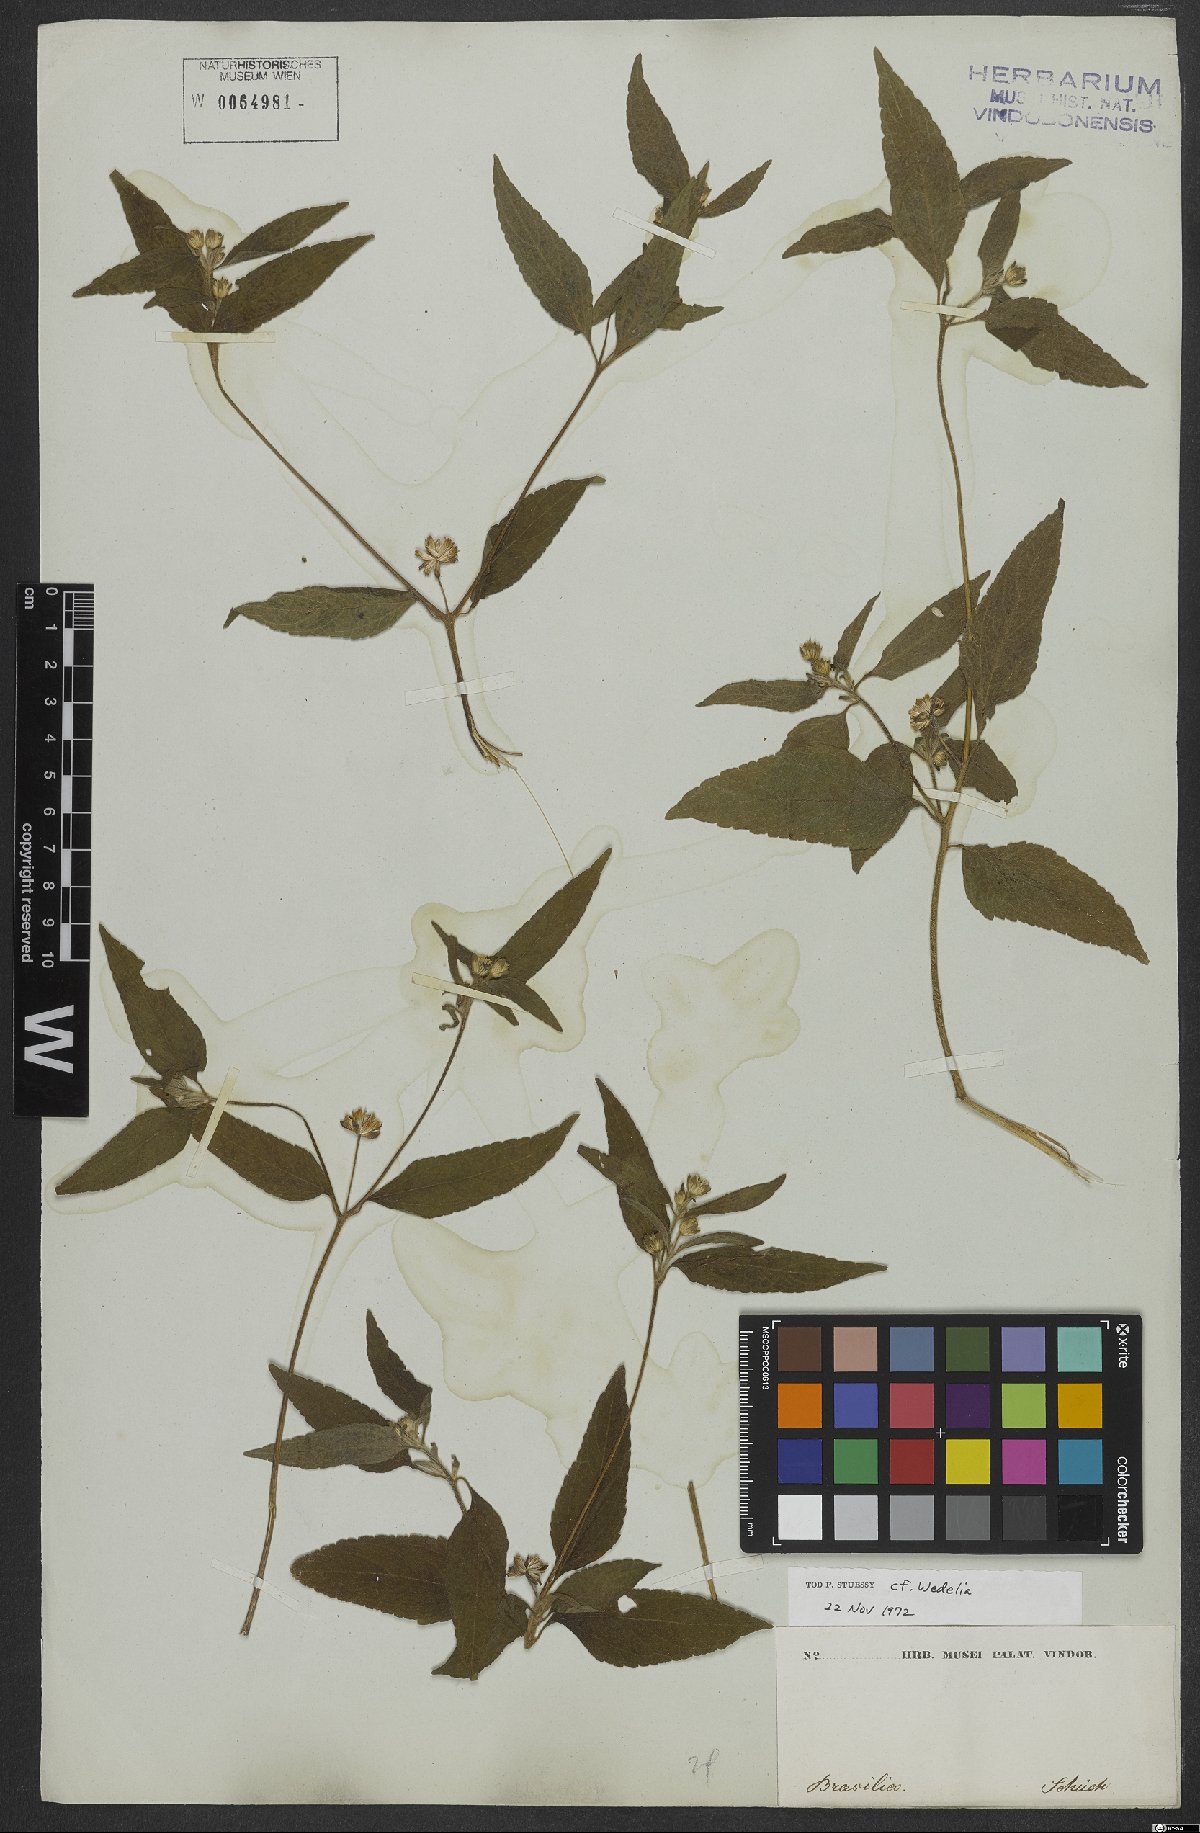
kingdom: Plantae
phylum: Tracheophyta
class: Magnoliopsida
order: Asterales
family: Asteraceae
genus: Wedelia
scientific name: Wedelia
